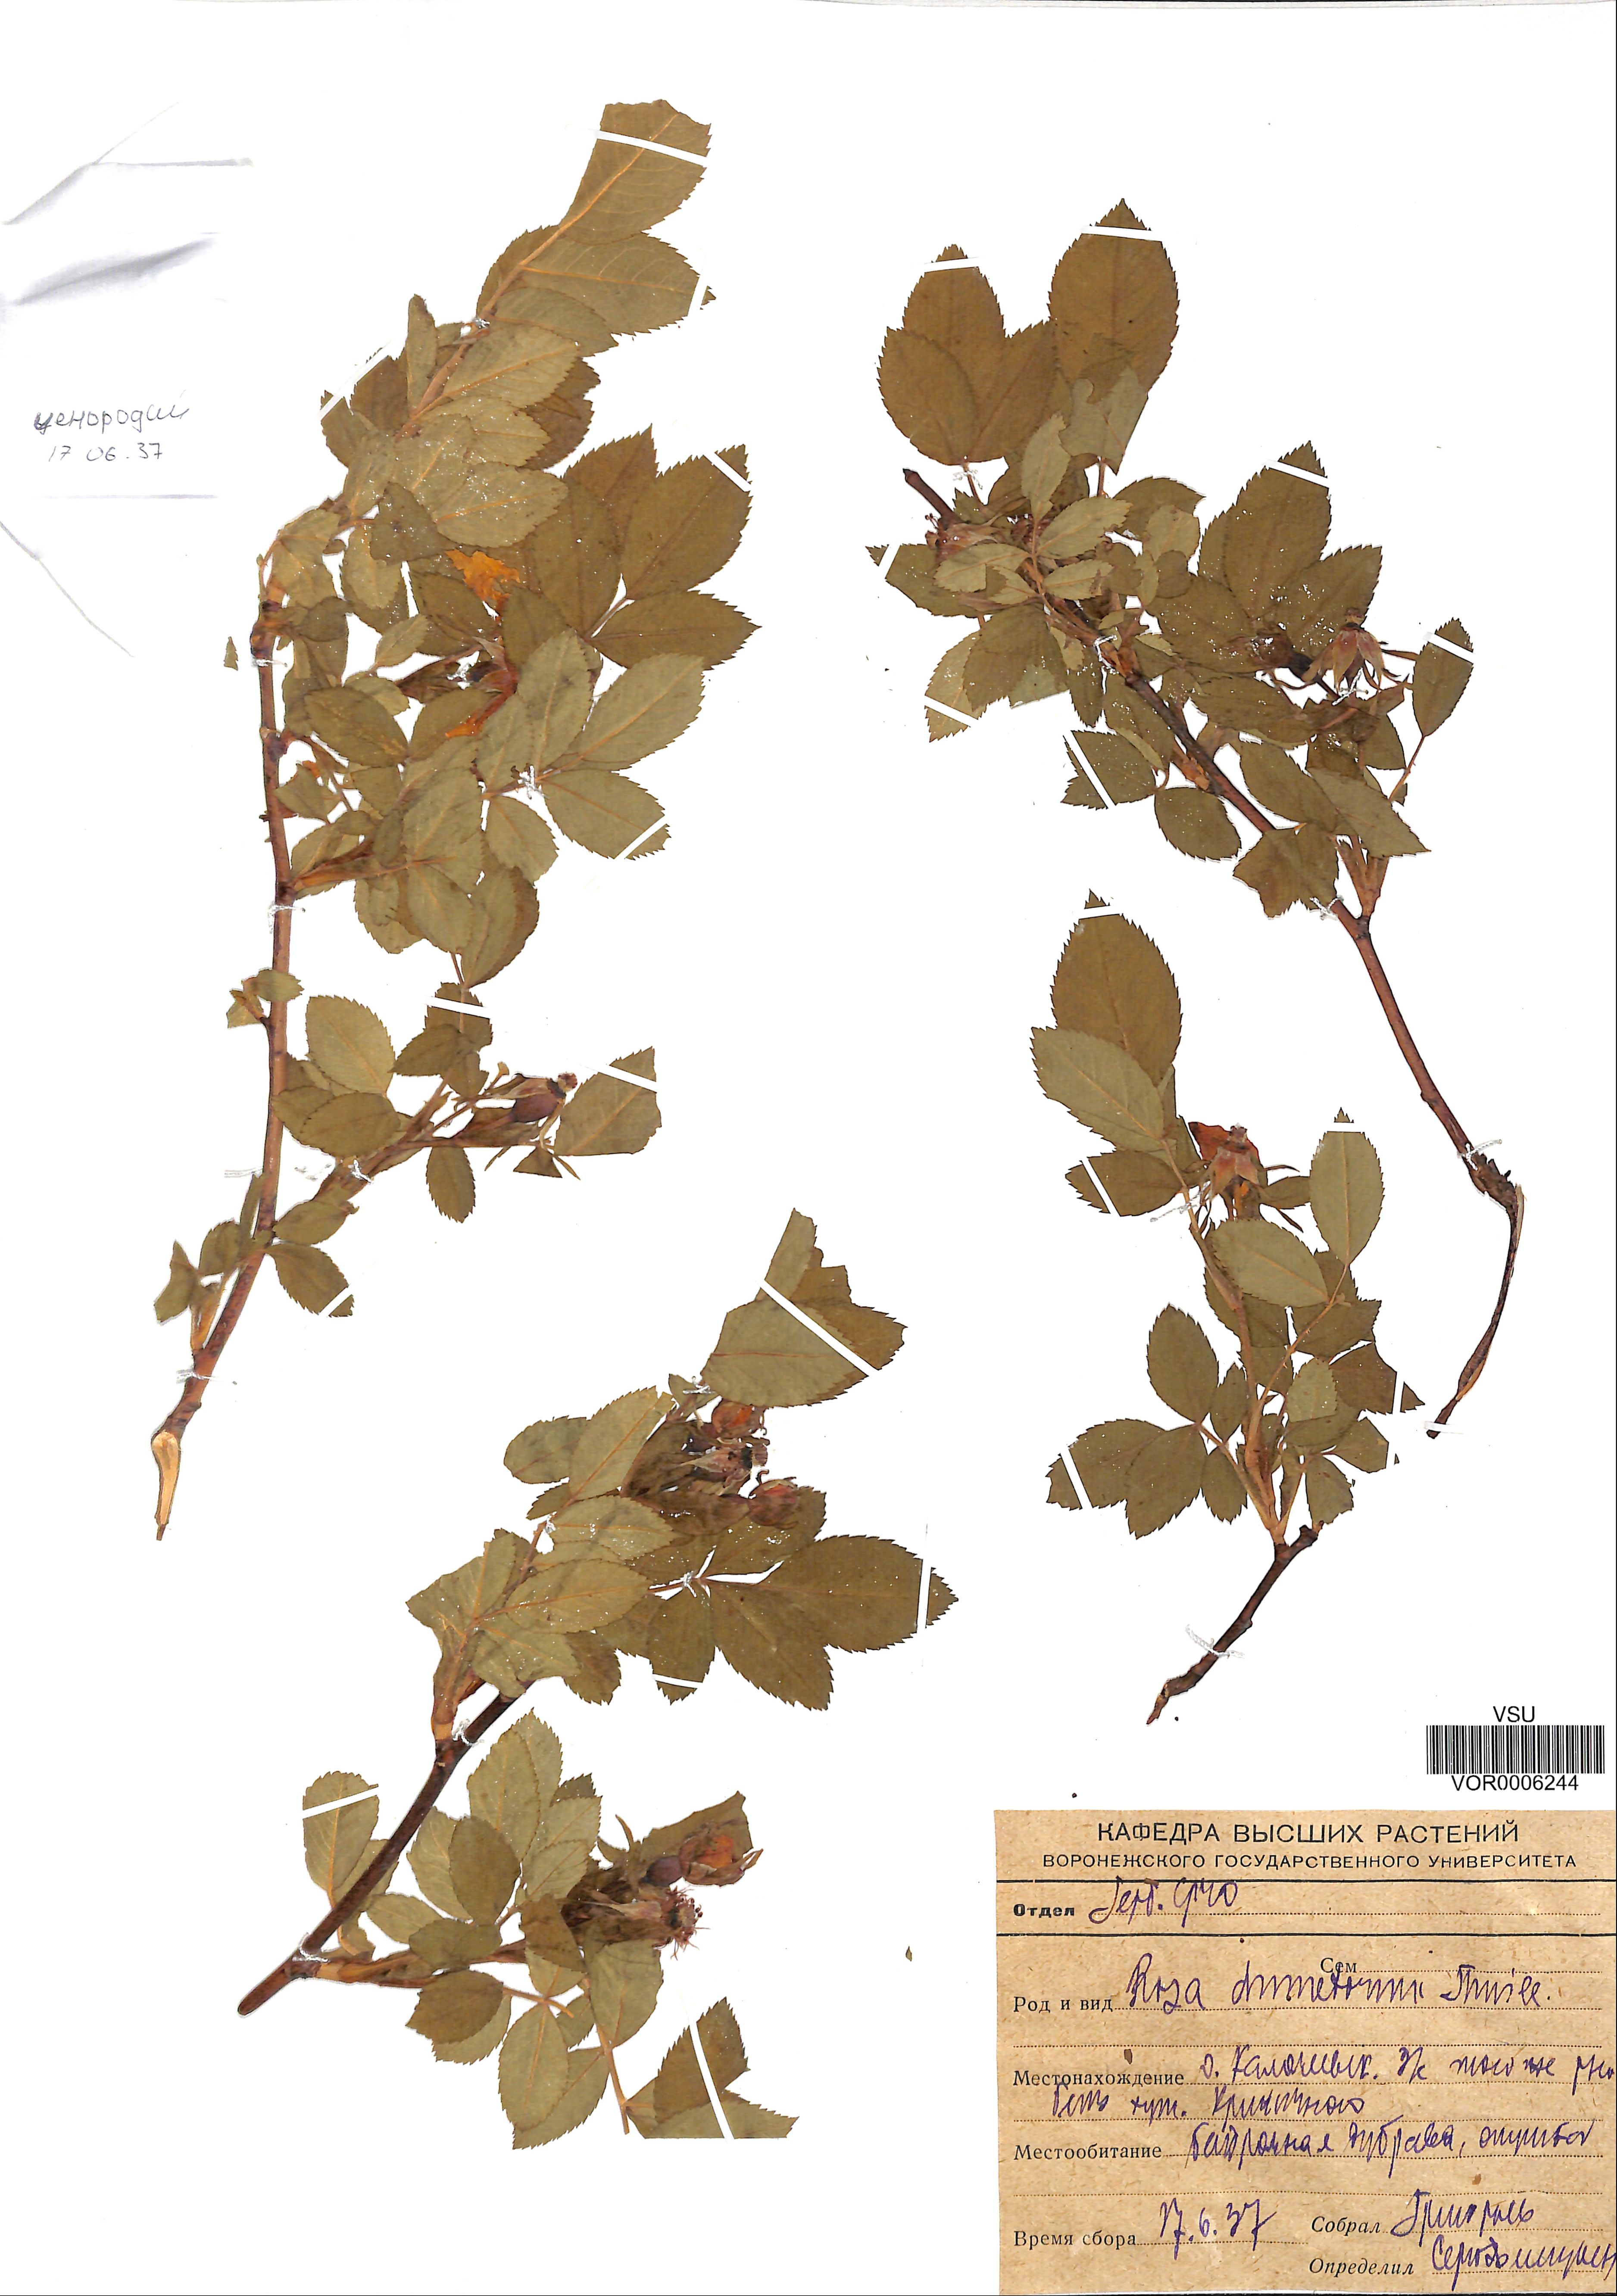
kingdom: Plantae
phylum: Tracheophyta
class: Magnoliopsida
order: Rosales
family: Rosaceae
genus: Rosa
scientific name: Rosa canina
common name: Dog rose
